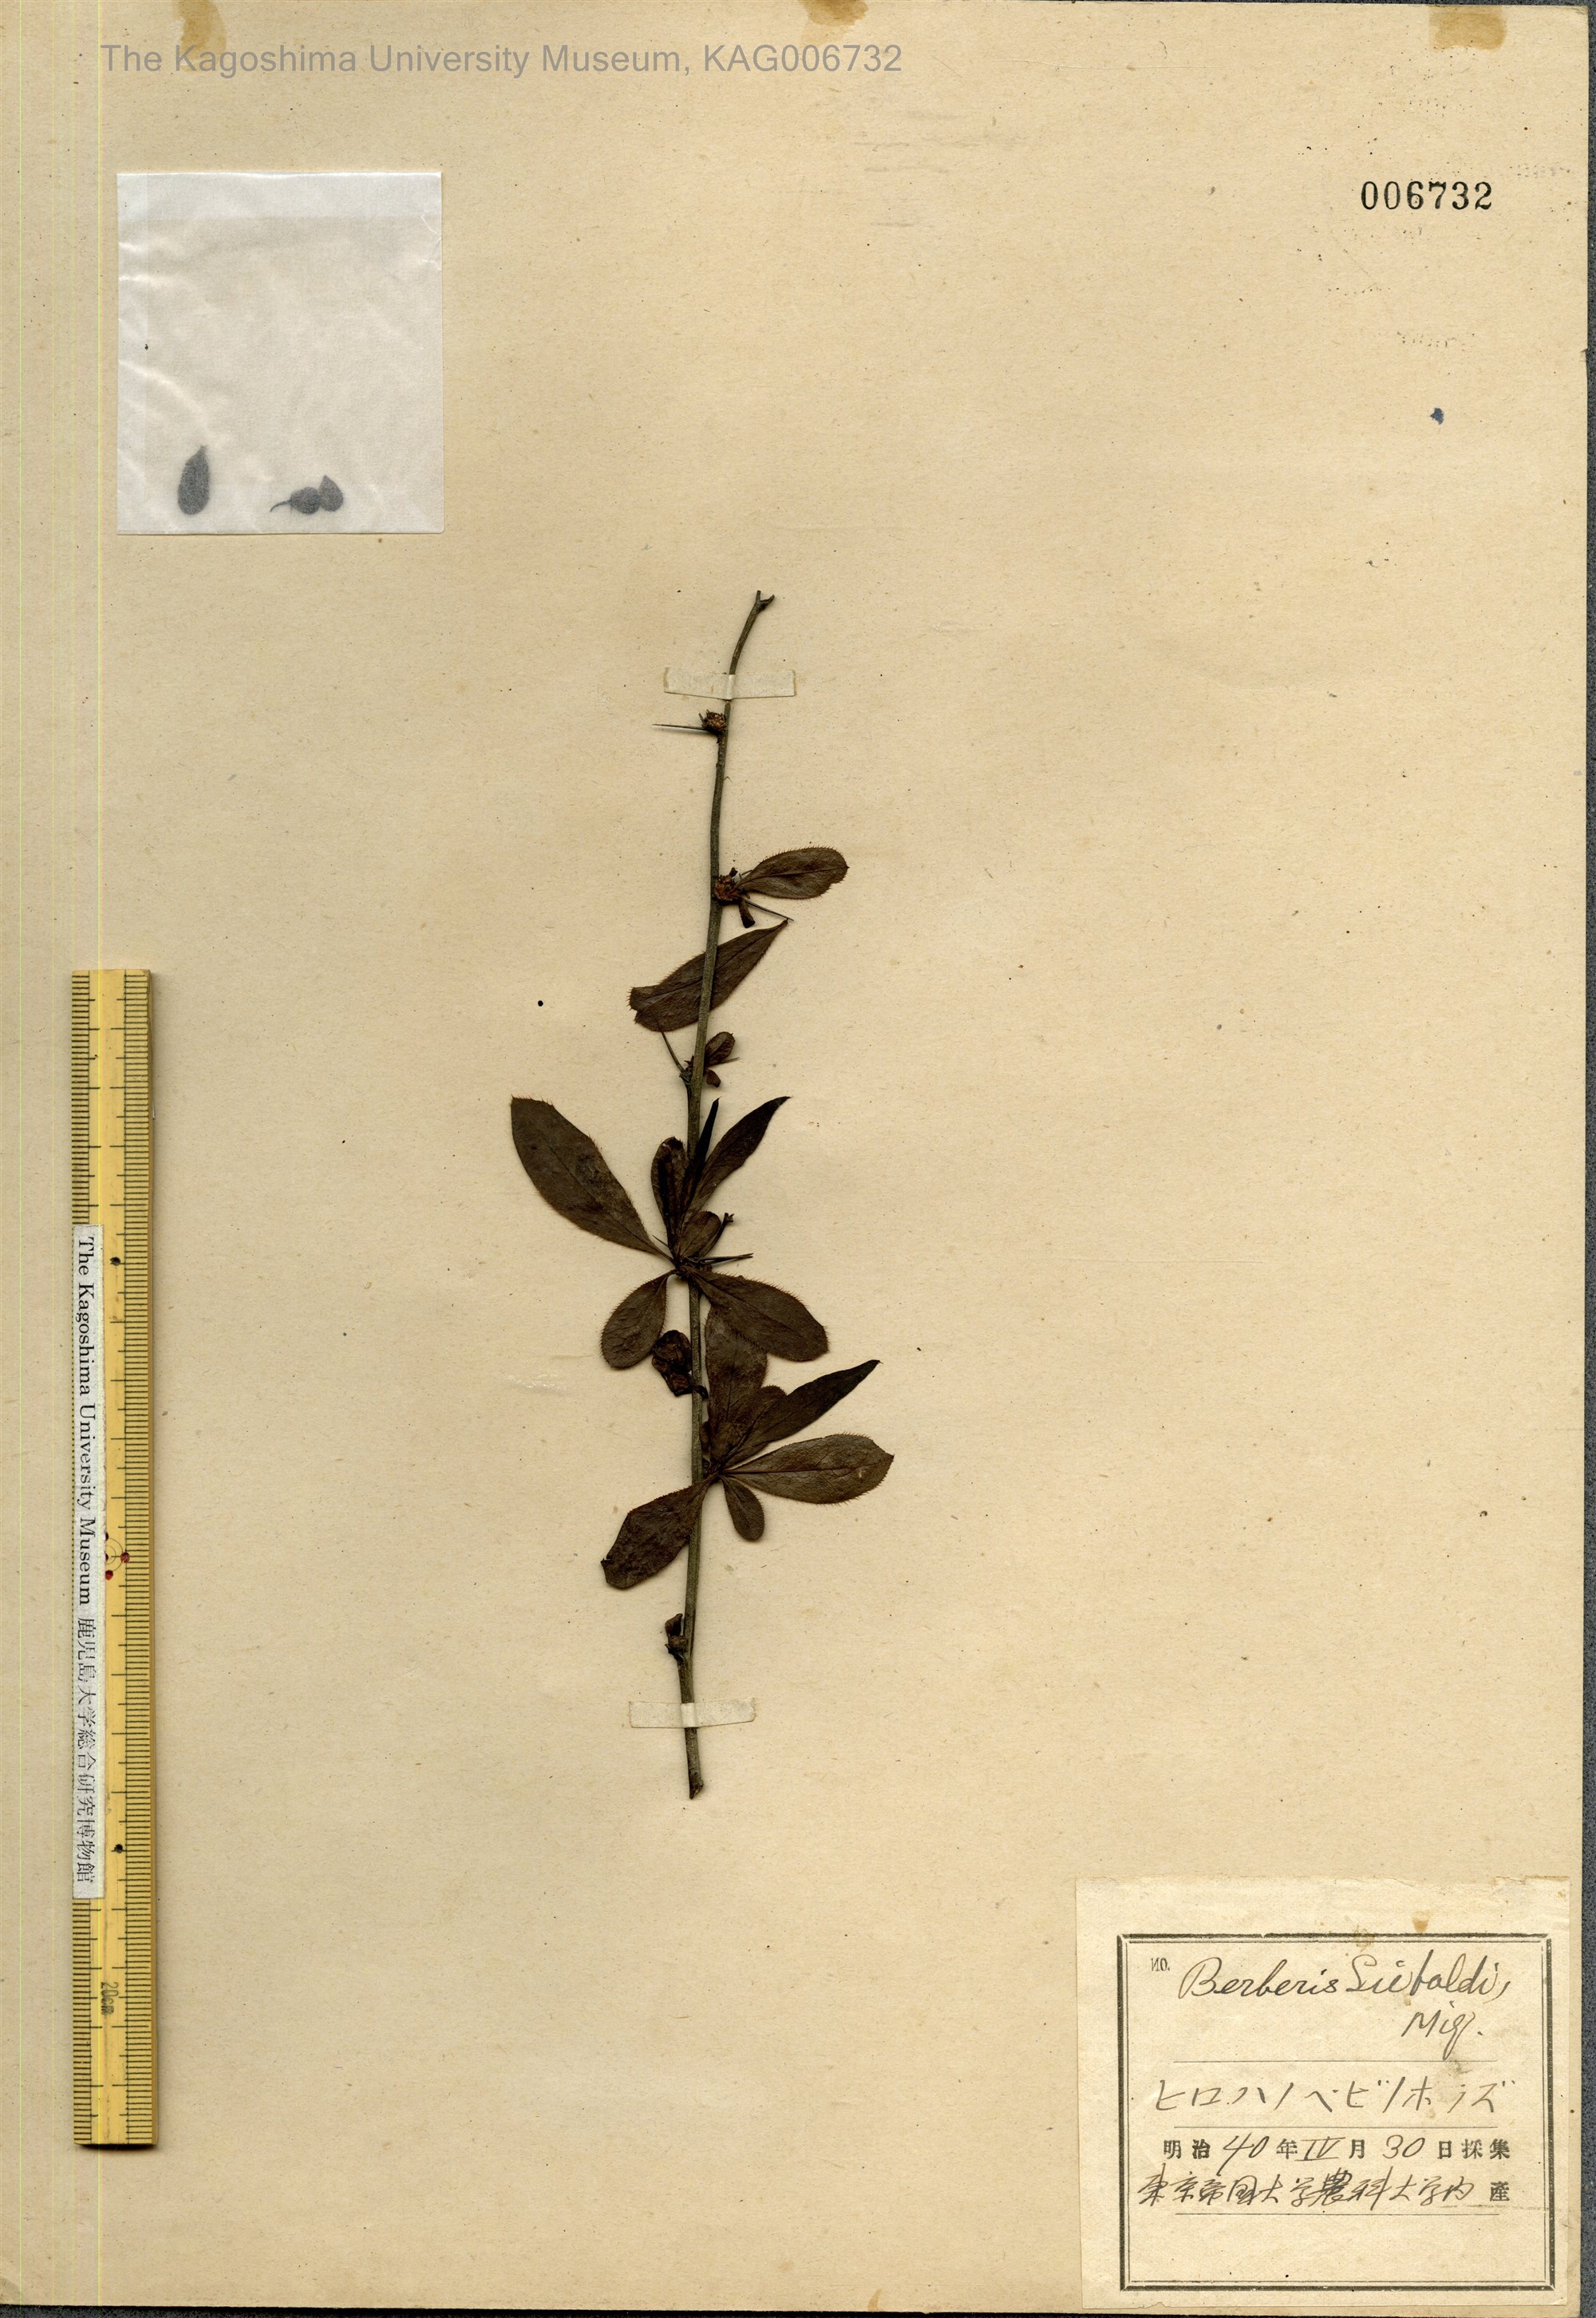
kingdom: Plantae
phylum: Tracheophyta
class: Magnoliopsida
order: Ranunculales
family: Berberidaceae
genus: Berberis
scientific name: Berberis sieboldii
